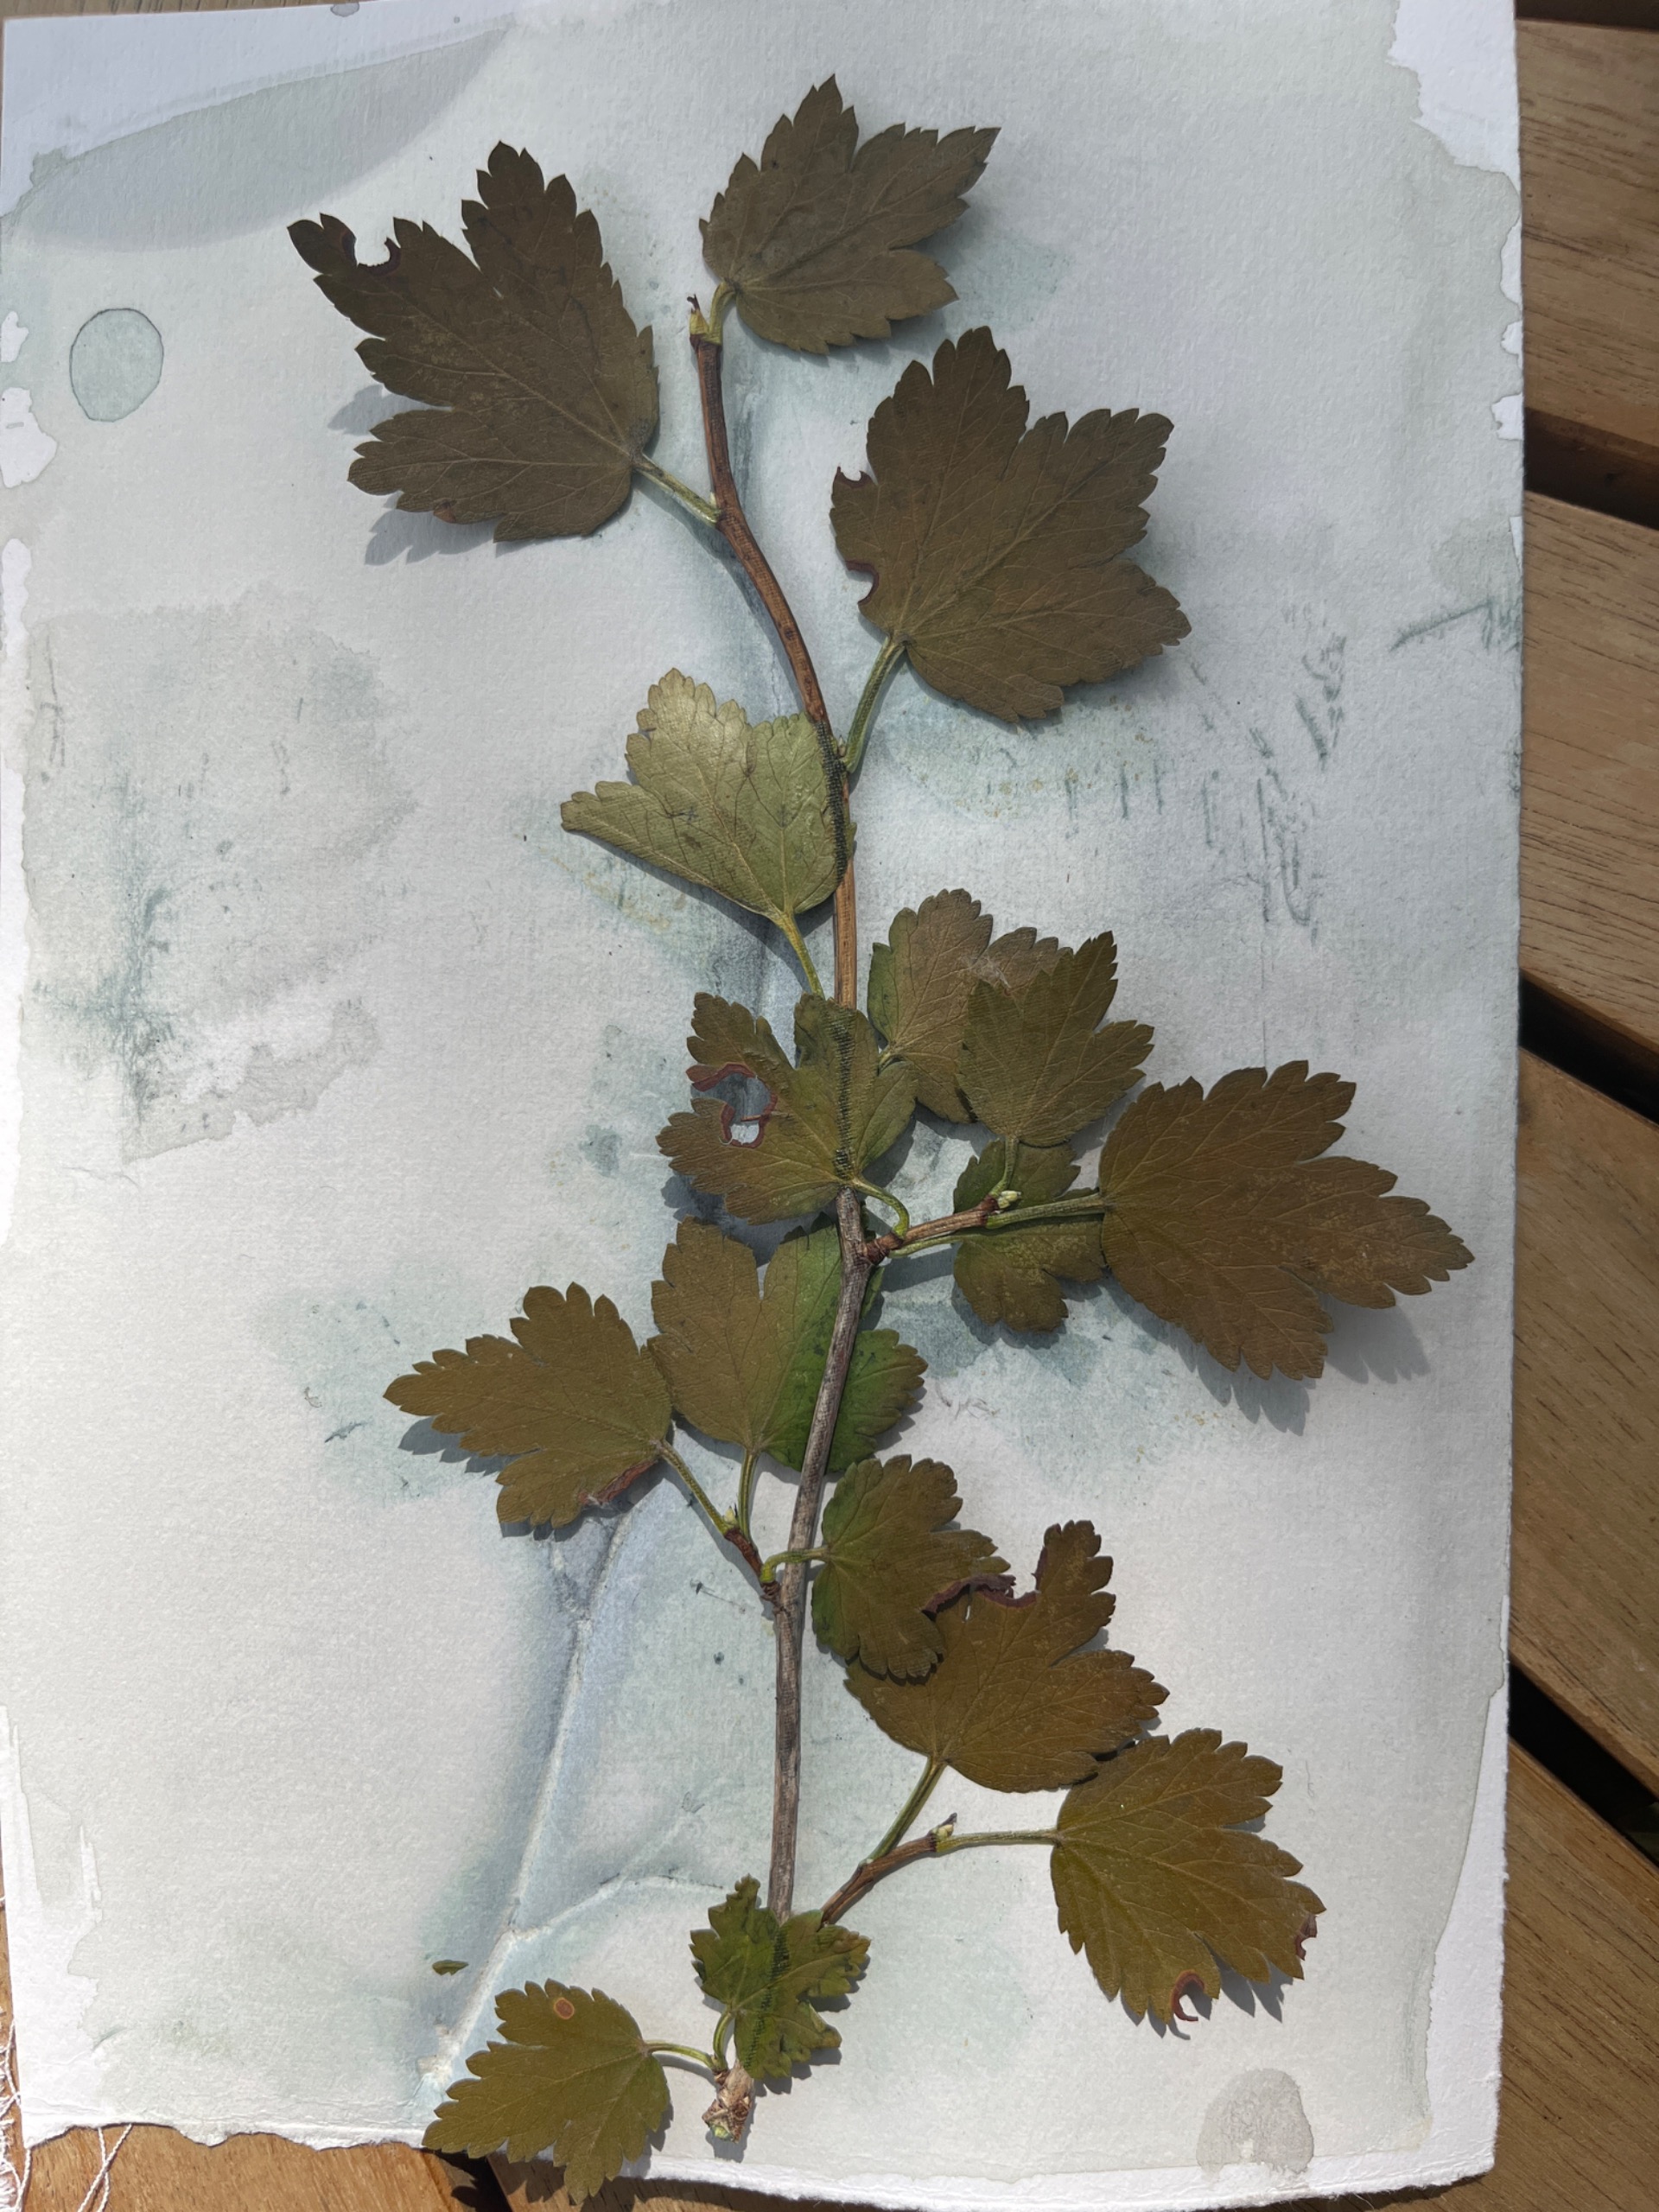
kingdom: Plantae
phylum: Tracheophyta
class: Magnoliopsida
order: Saxifragales
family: Grossulariaceae
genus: Ribes
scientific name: Ribes uva-crispa
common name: Stikkelsbær
